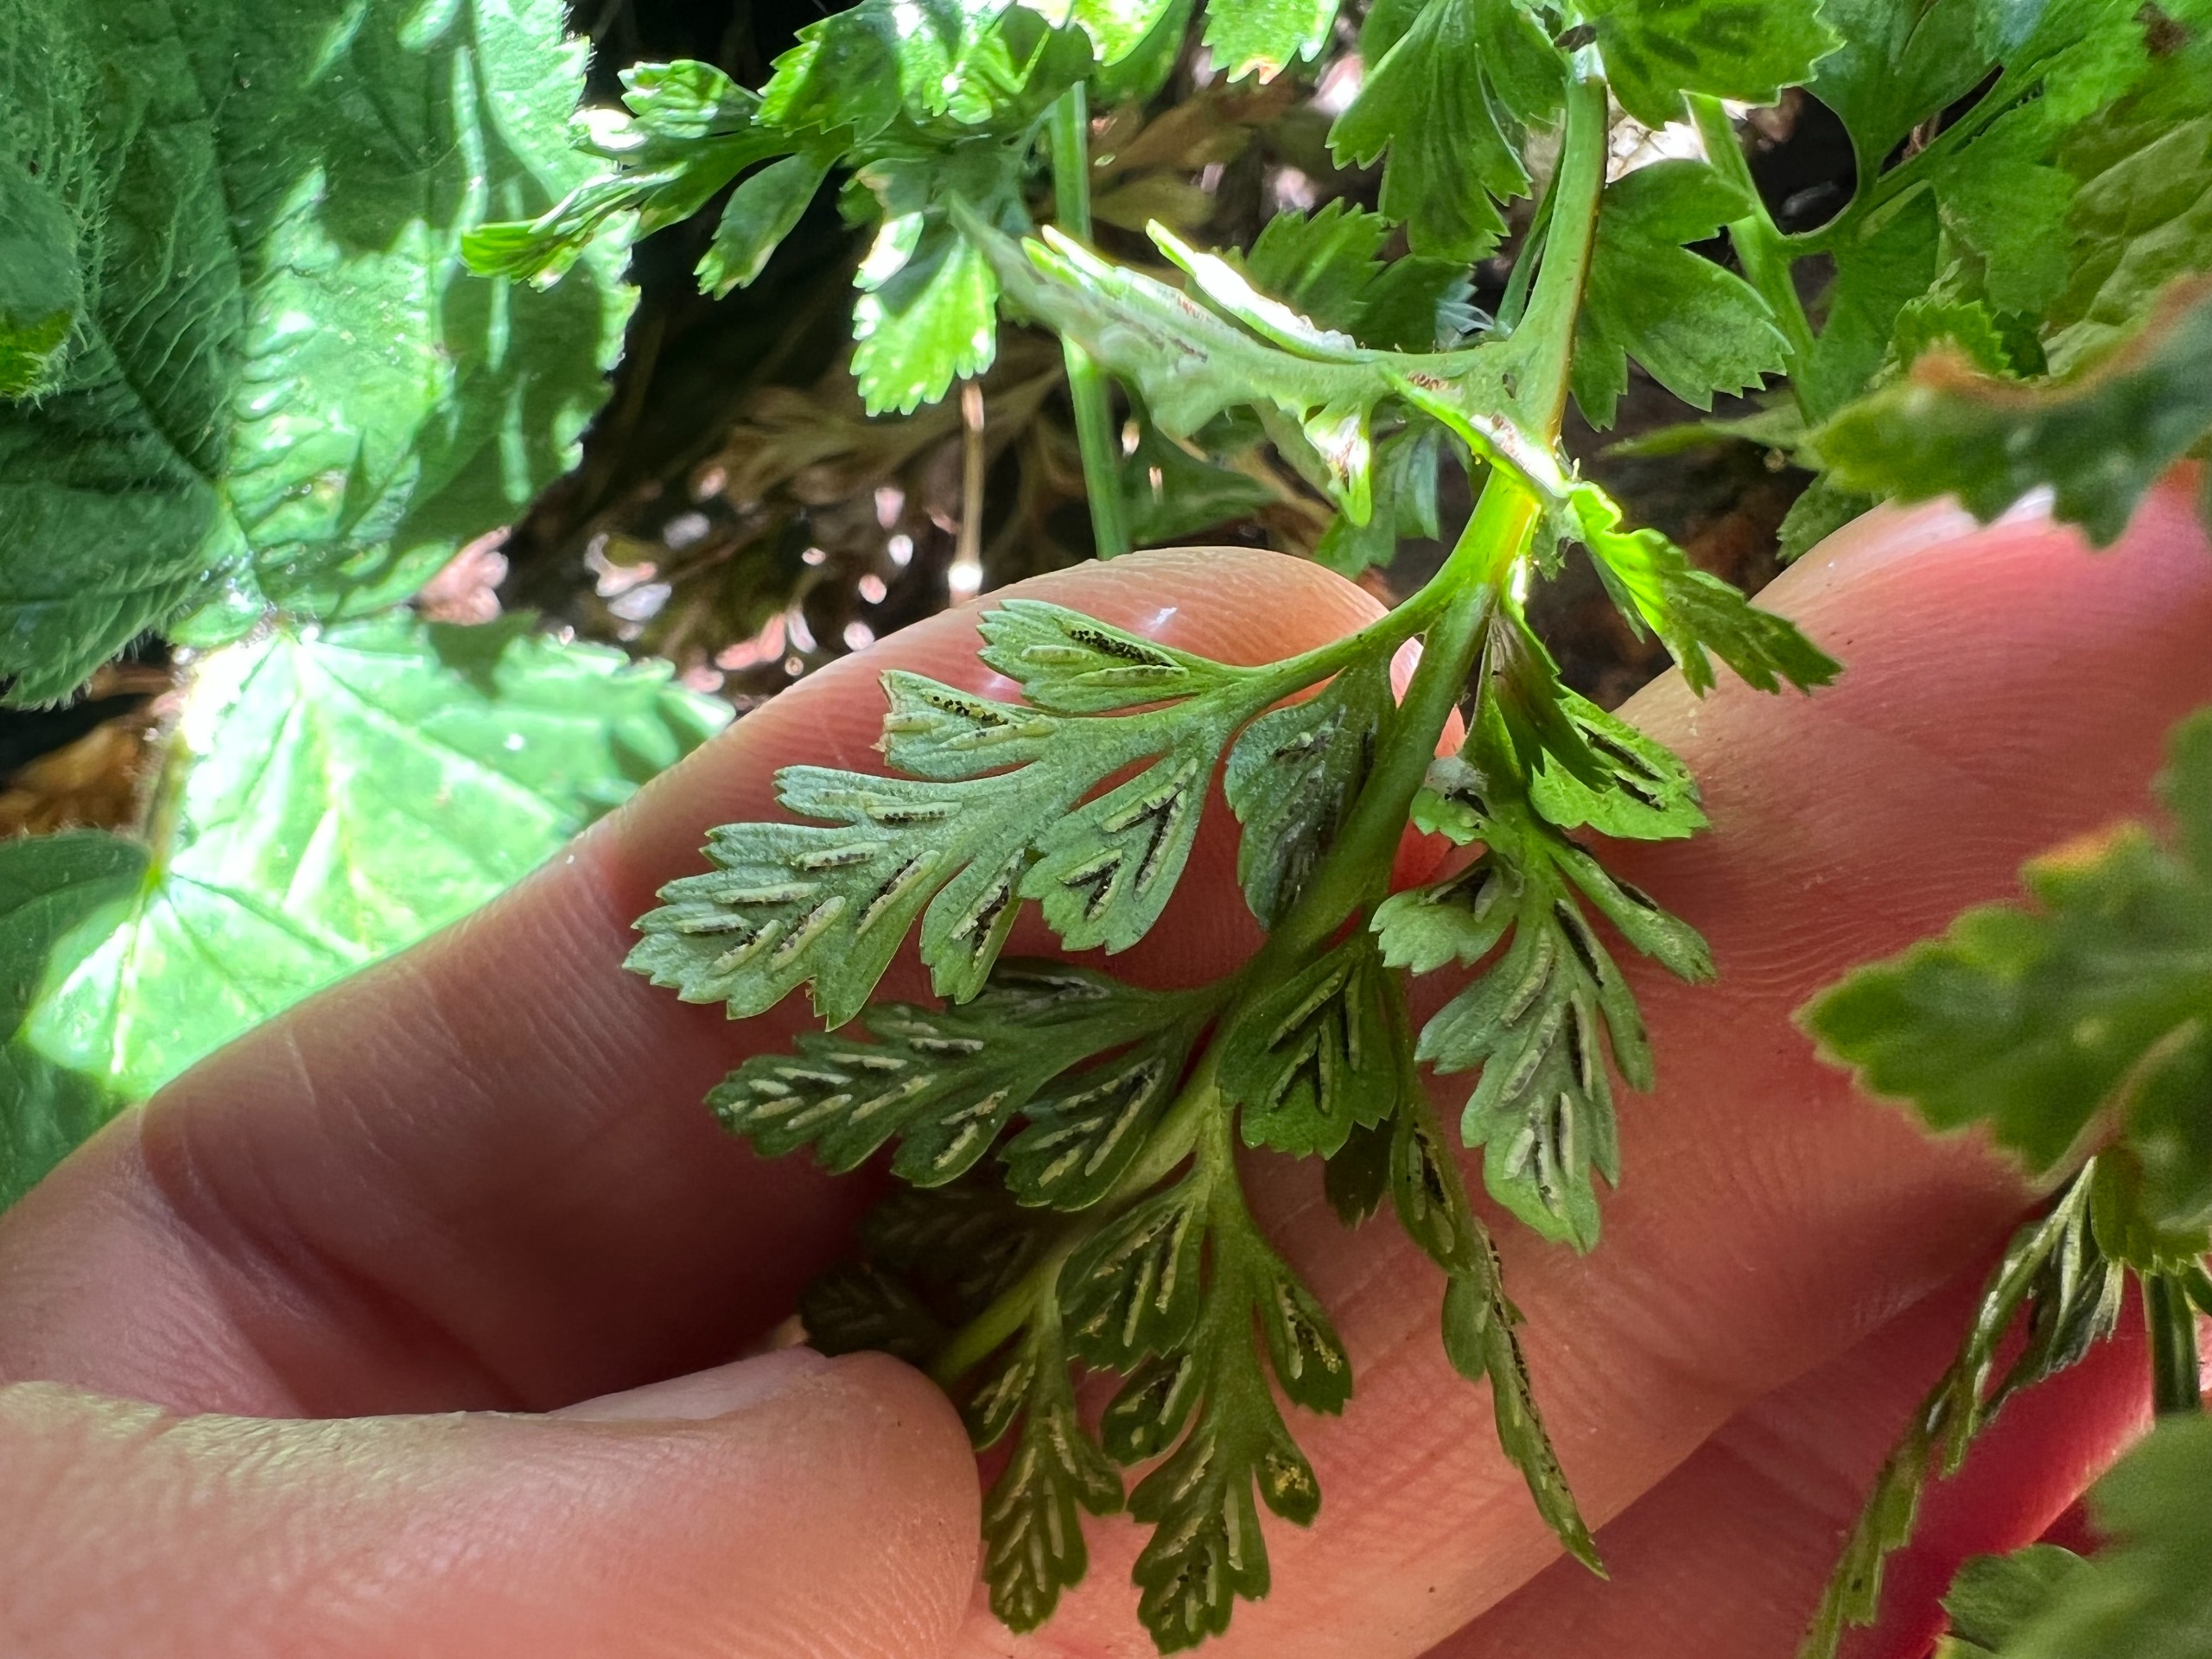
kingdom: Plantae
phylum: Tracheophyta
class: Polypodiopsida
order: Polypodiales
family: Aspleniaceae
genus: Asplenium
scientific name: Asplenium adiantum-nigrum
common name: Sort radeløv
